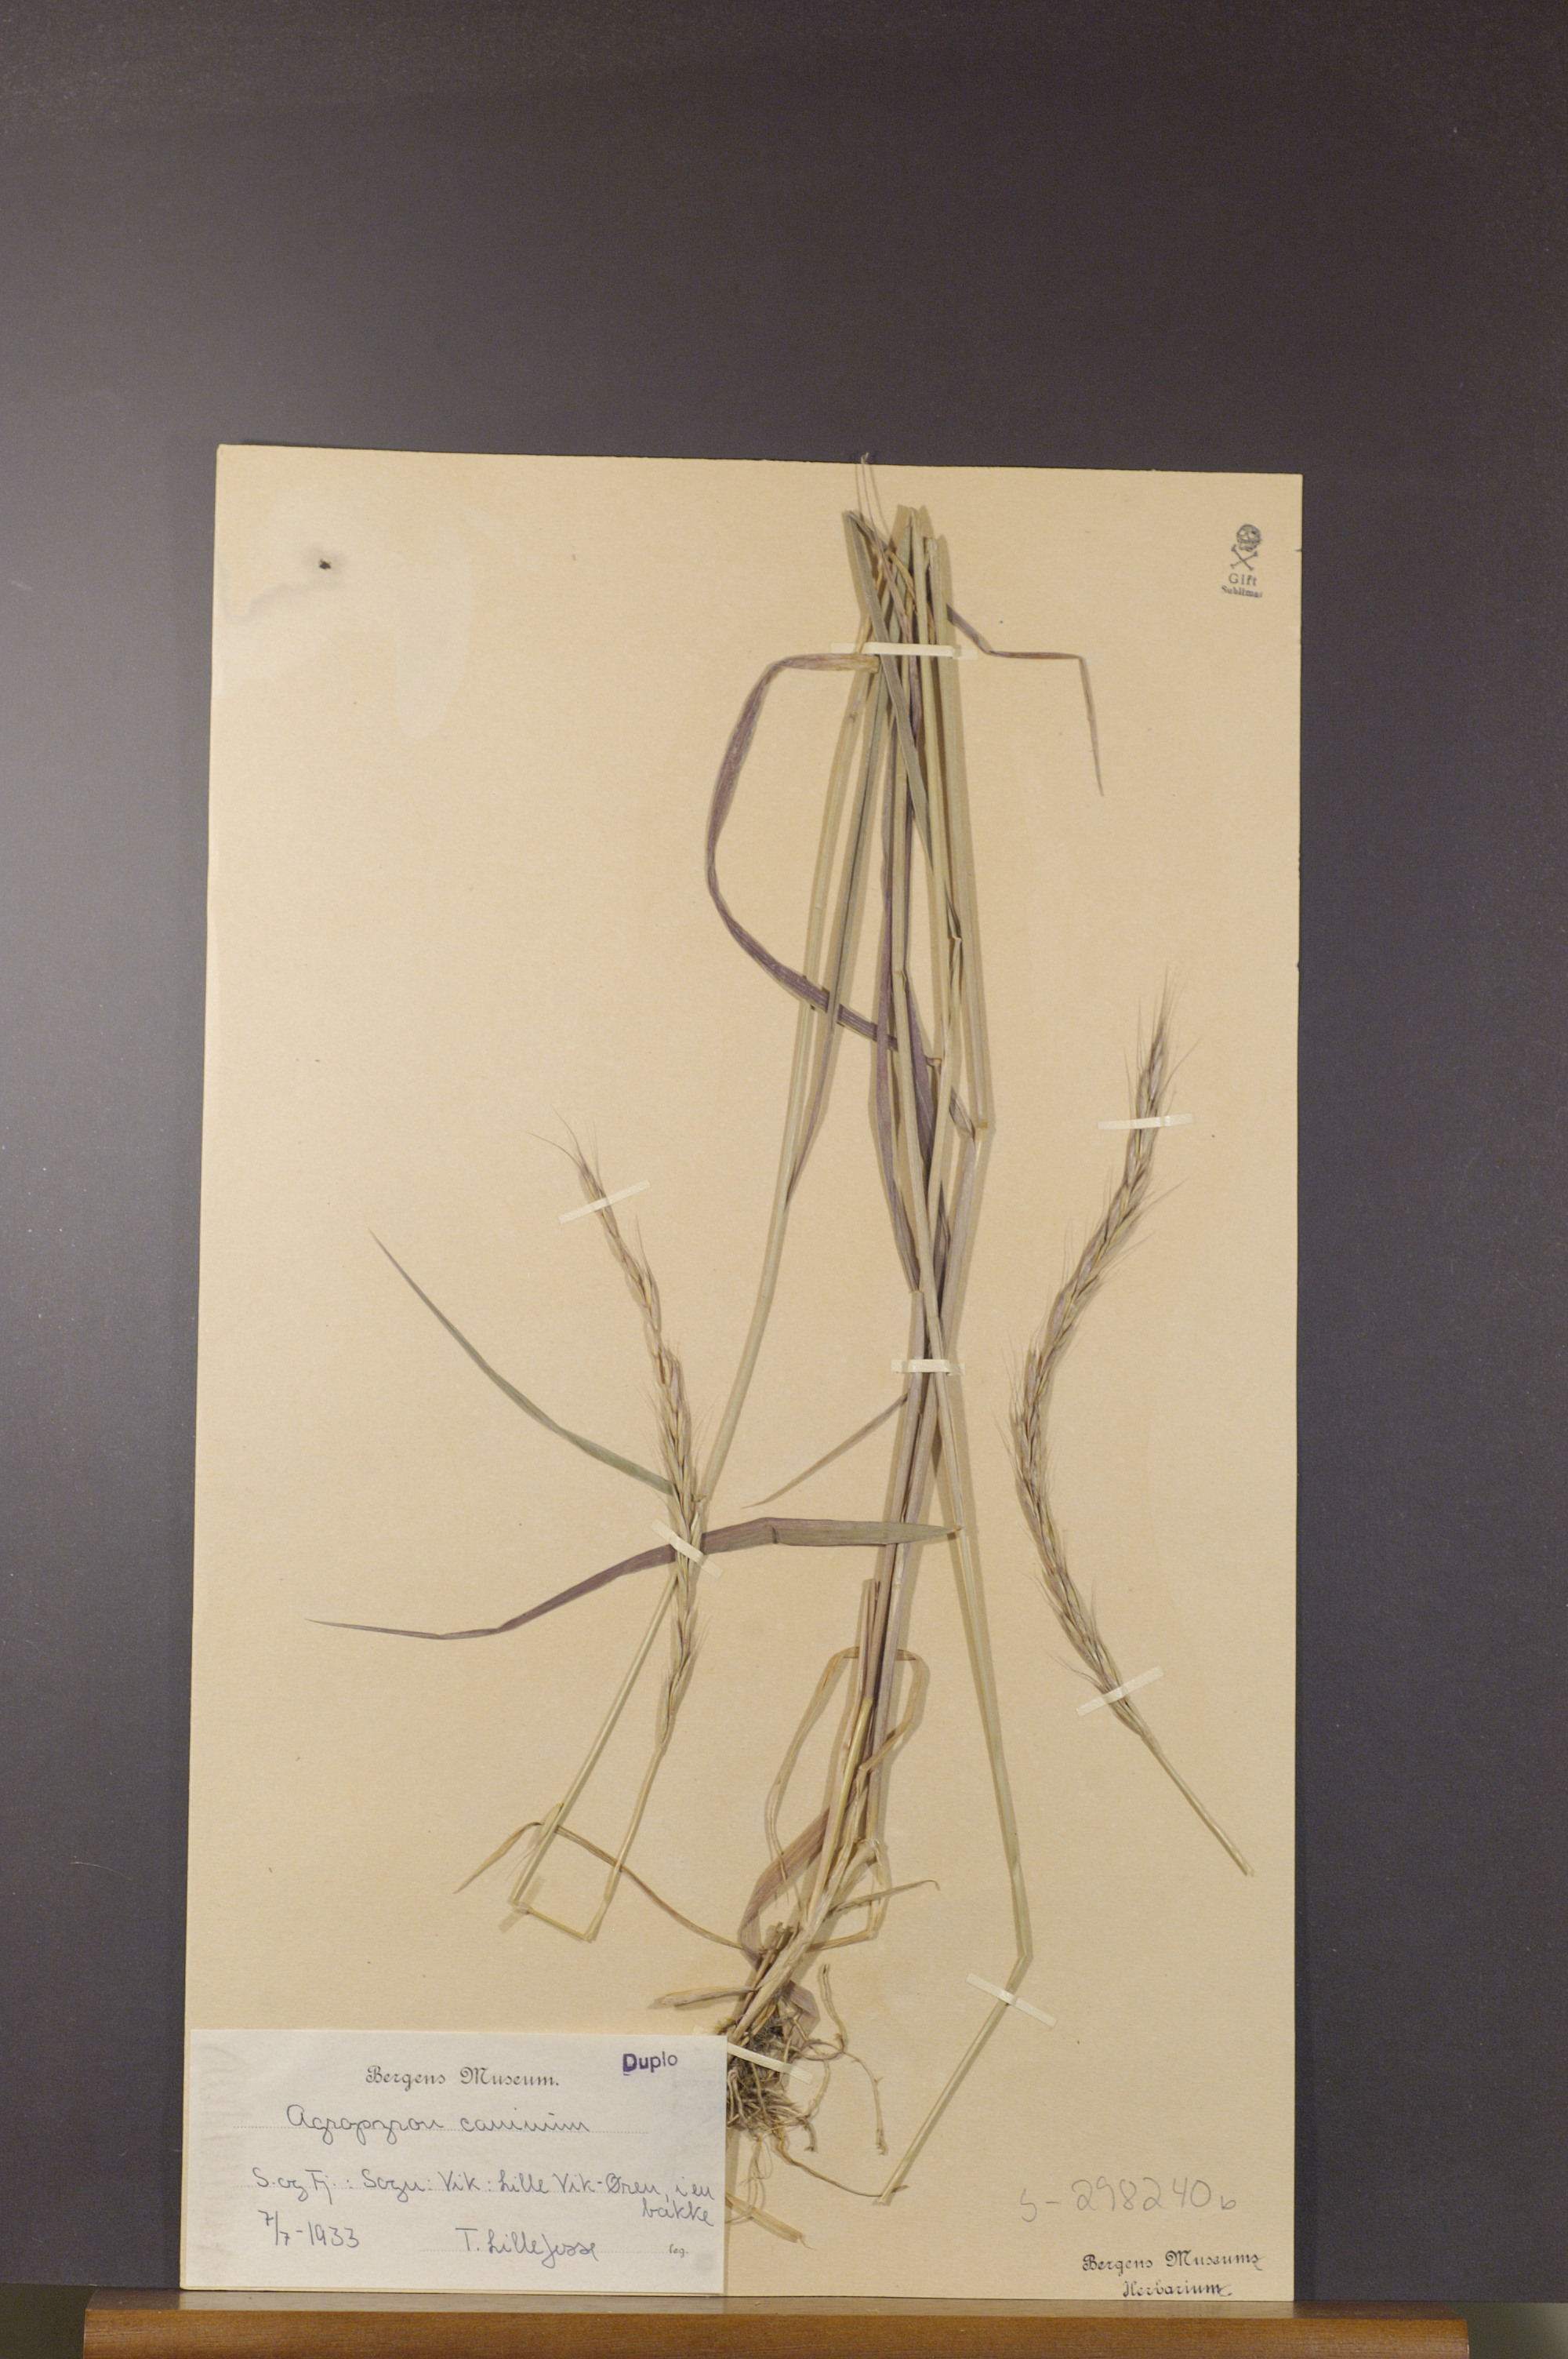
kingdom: Plantae
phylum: Tracheophyta
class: Liliopsida
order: Poales
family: Poaceae
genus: Elymus
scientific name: Elymus caninus
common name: Bearded couch
